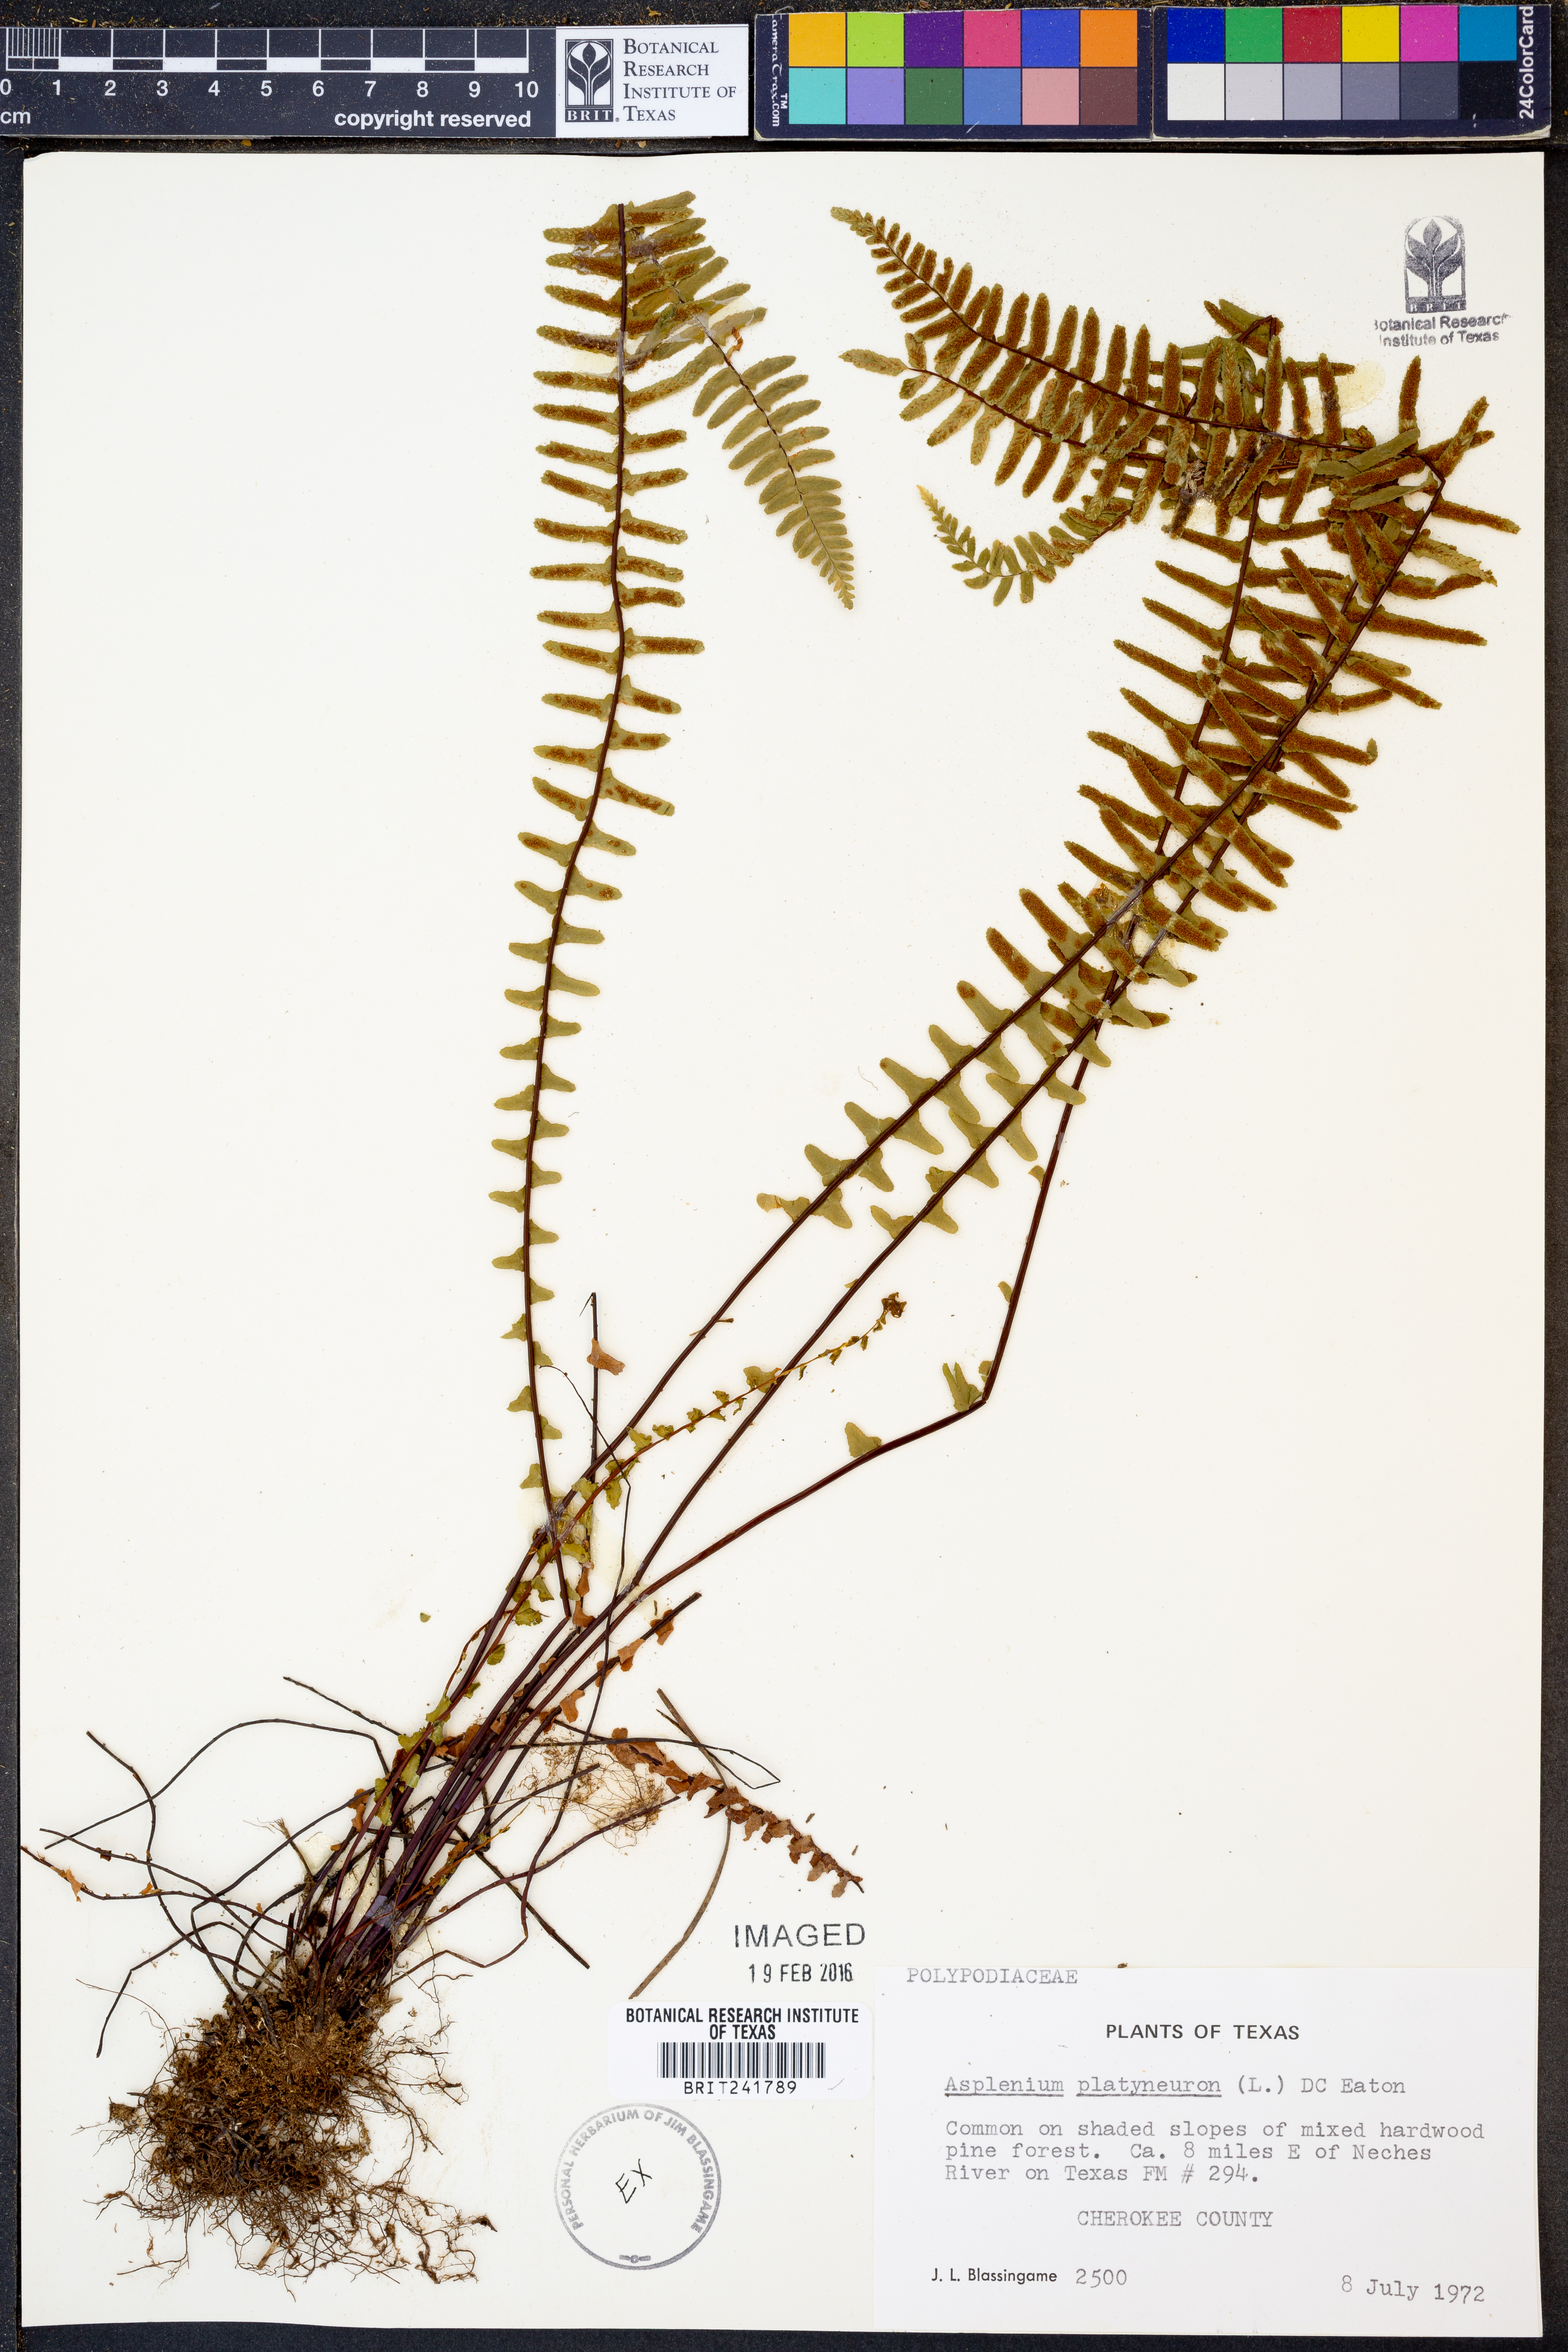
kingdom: Plantae
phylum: Tracheophyta
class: Polypodiopsida
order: Polypodiales
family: Aspleniaceae
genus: Asplenium
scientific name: Asplenium platyneuron
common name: Ebony spleenwort
